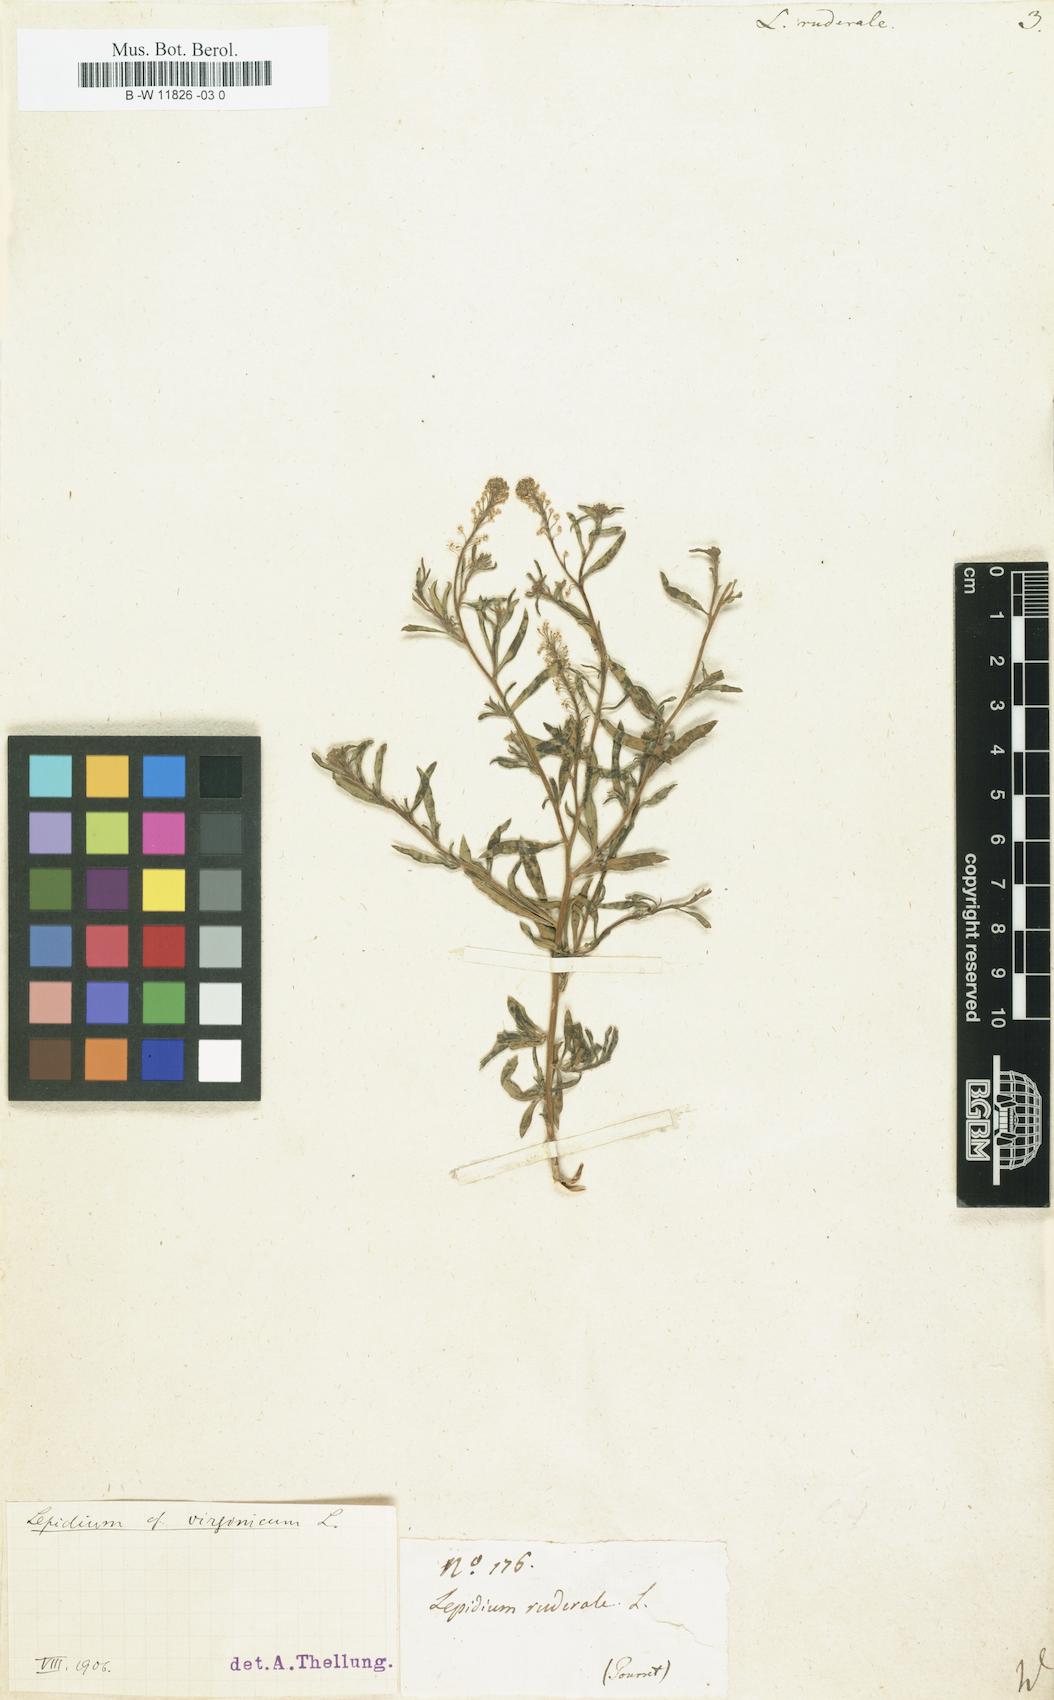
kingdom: Plantae
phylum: Tracheophyta
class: Magnoliopsida
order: Brassicales
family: Brassicaceae
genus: Lepidium
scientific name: Lepidium ruderale
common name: Narrow-leaved pepperwort
